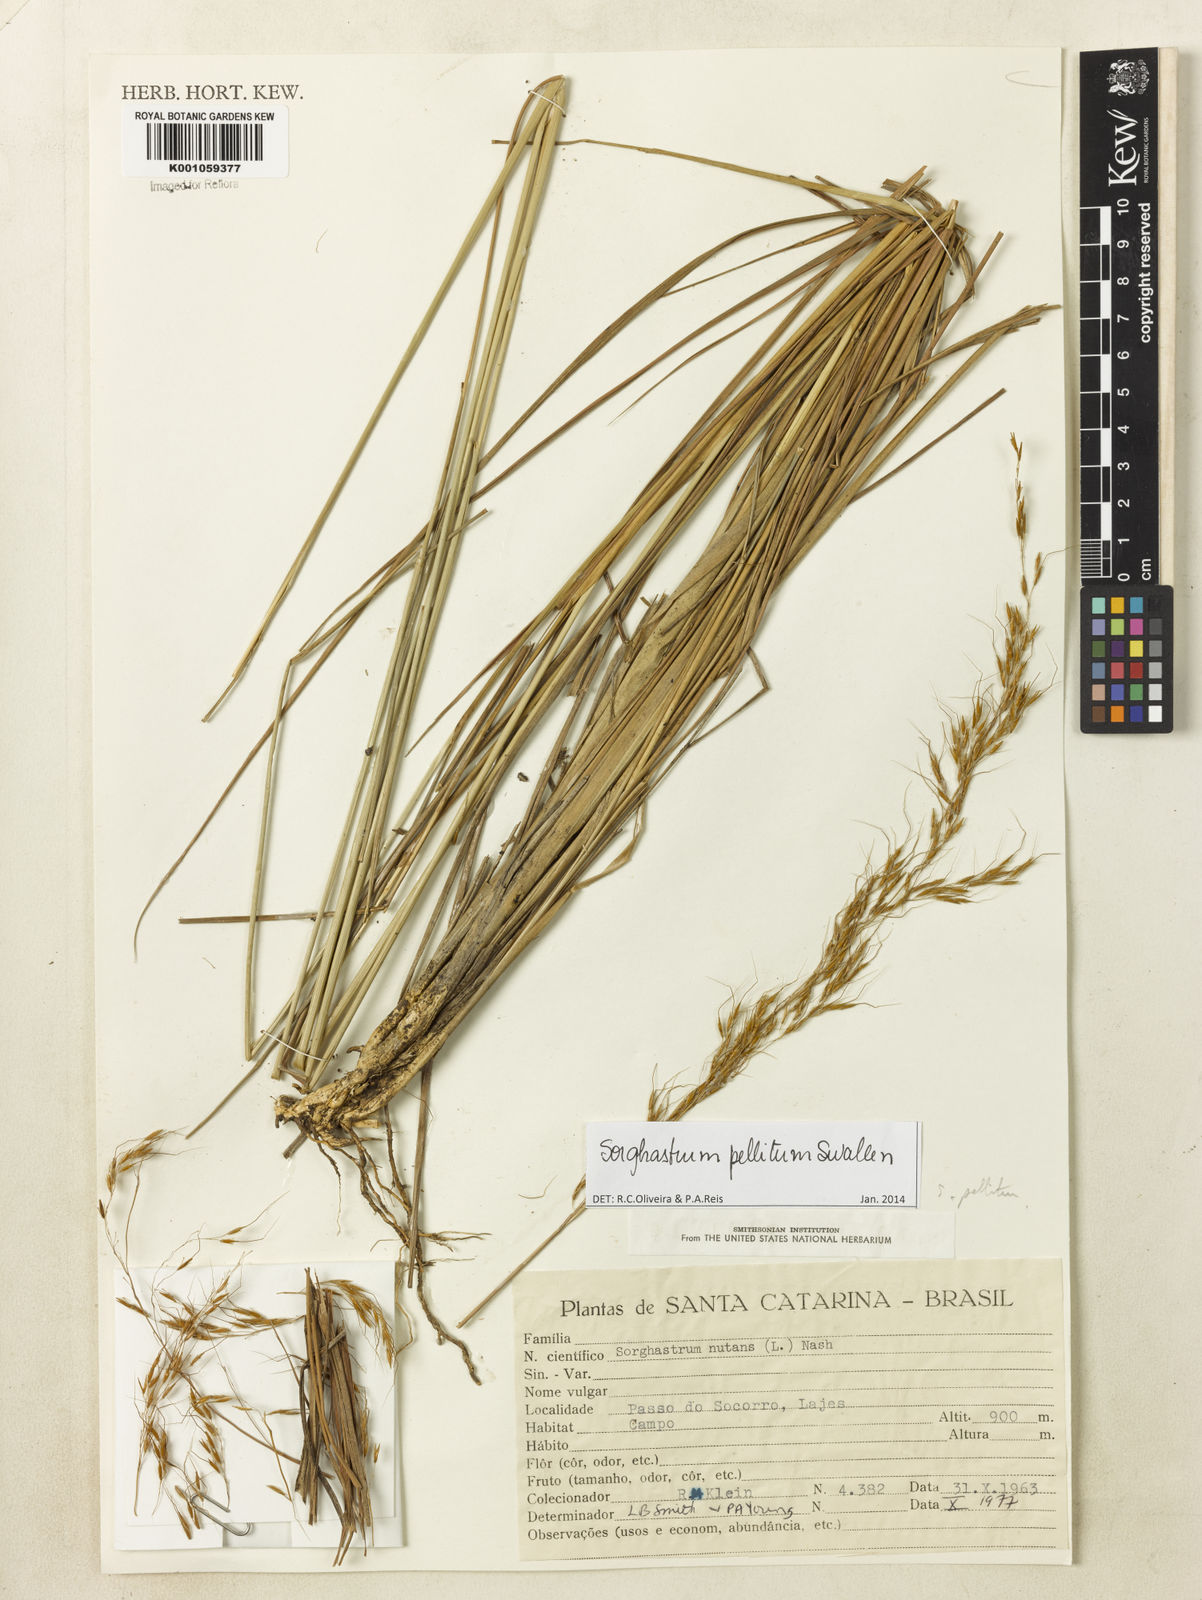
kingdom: Plantae
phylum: Tracheophyta
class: Liliopsida
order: Poales
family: Poaceae
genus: Sorghastrum
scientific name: Sorghastrum pellitum
